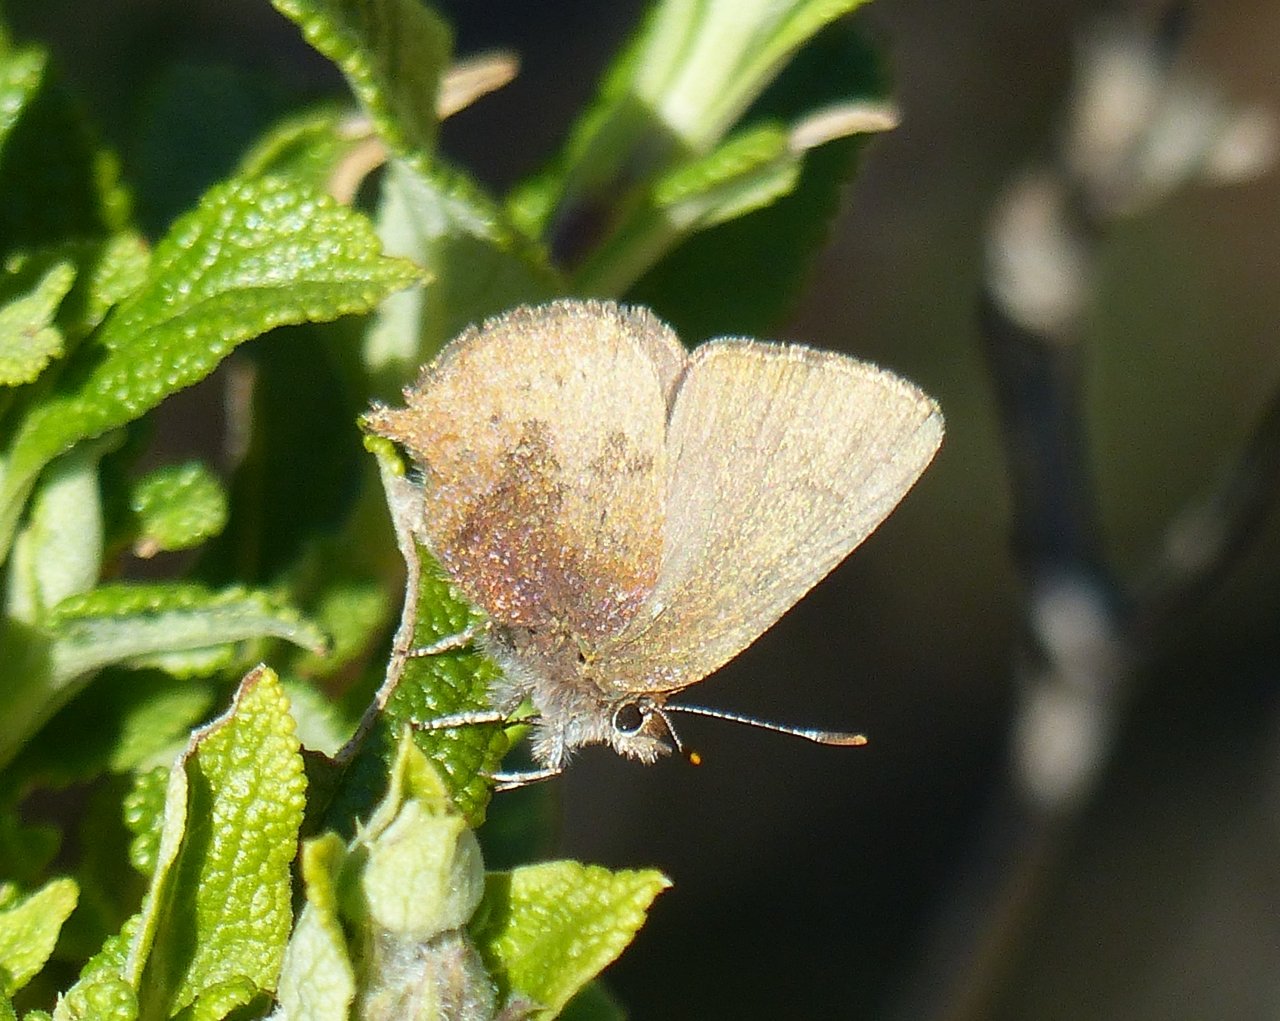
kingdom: Animalia
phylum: Arthropoda
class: Insecta
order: Lepidoptera
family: Lycaenidae
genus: Incisalia
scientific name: Incisalia irioides
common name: Brown Elfin
